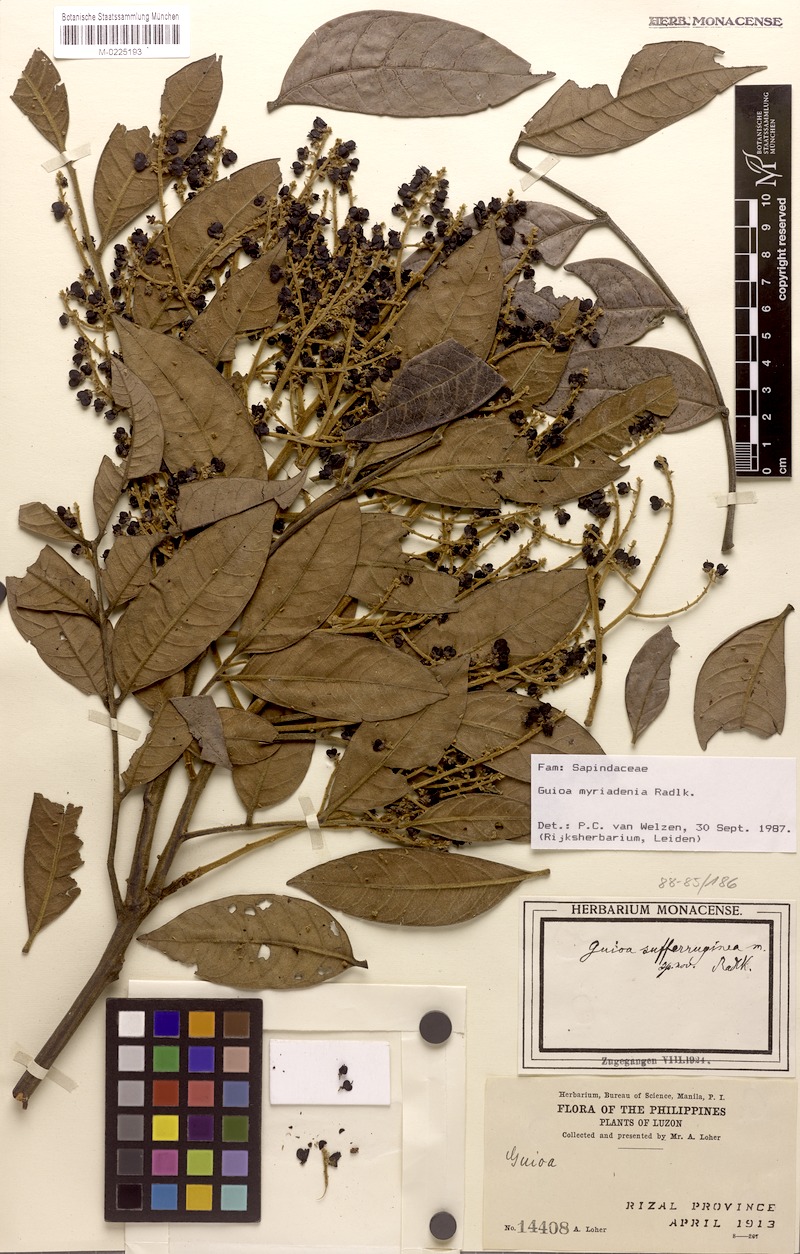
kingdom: Plantae
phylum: Tracheophyta
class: Magnoliopsida
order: Sapindales
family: Sapindaceae
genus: Guioa
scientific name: Guioa myriadenia
